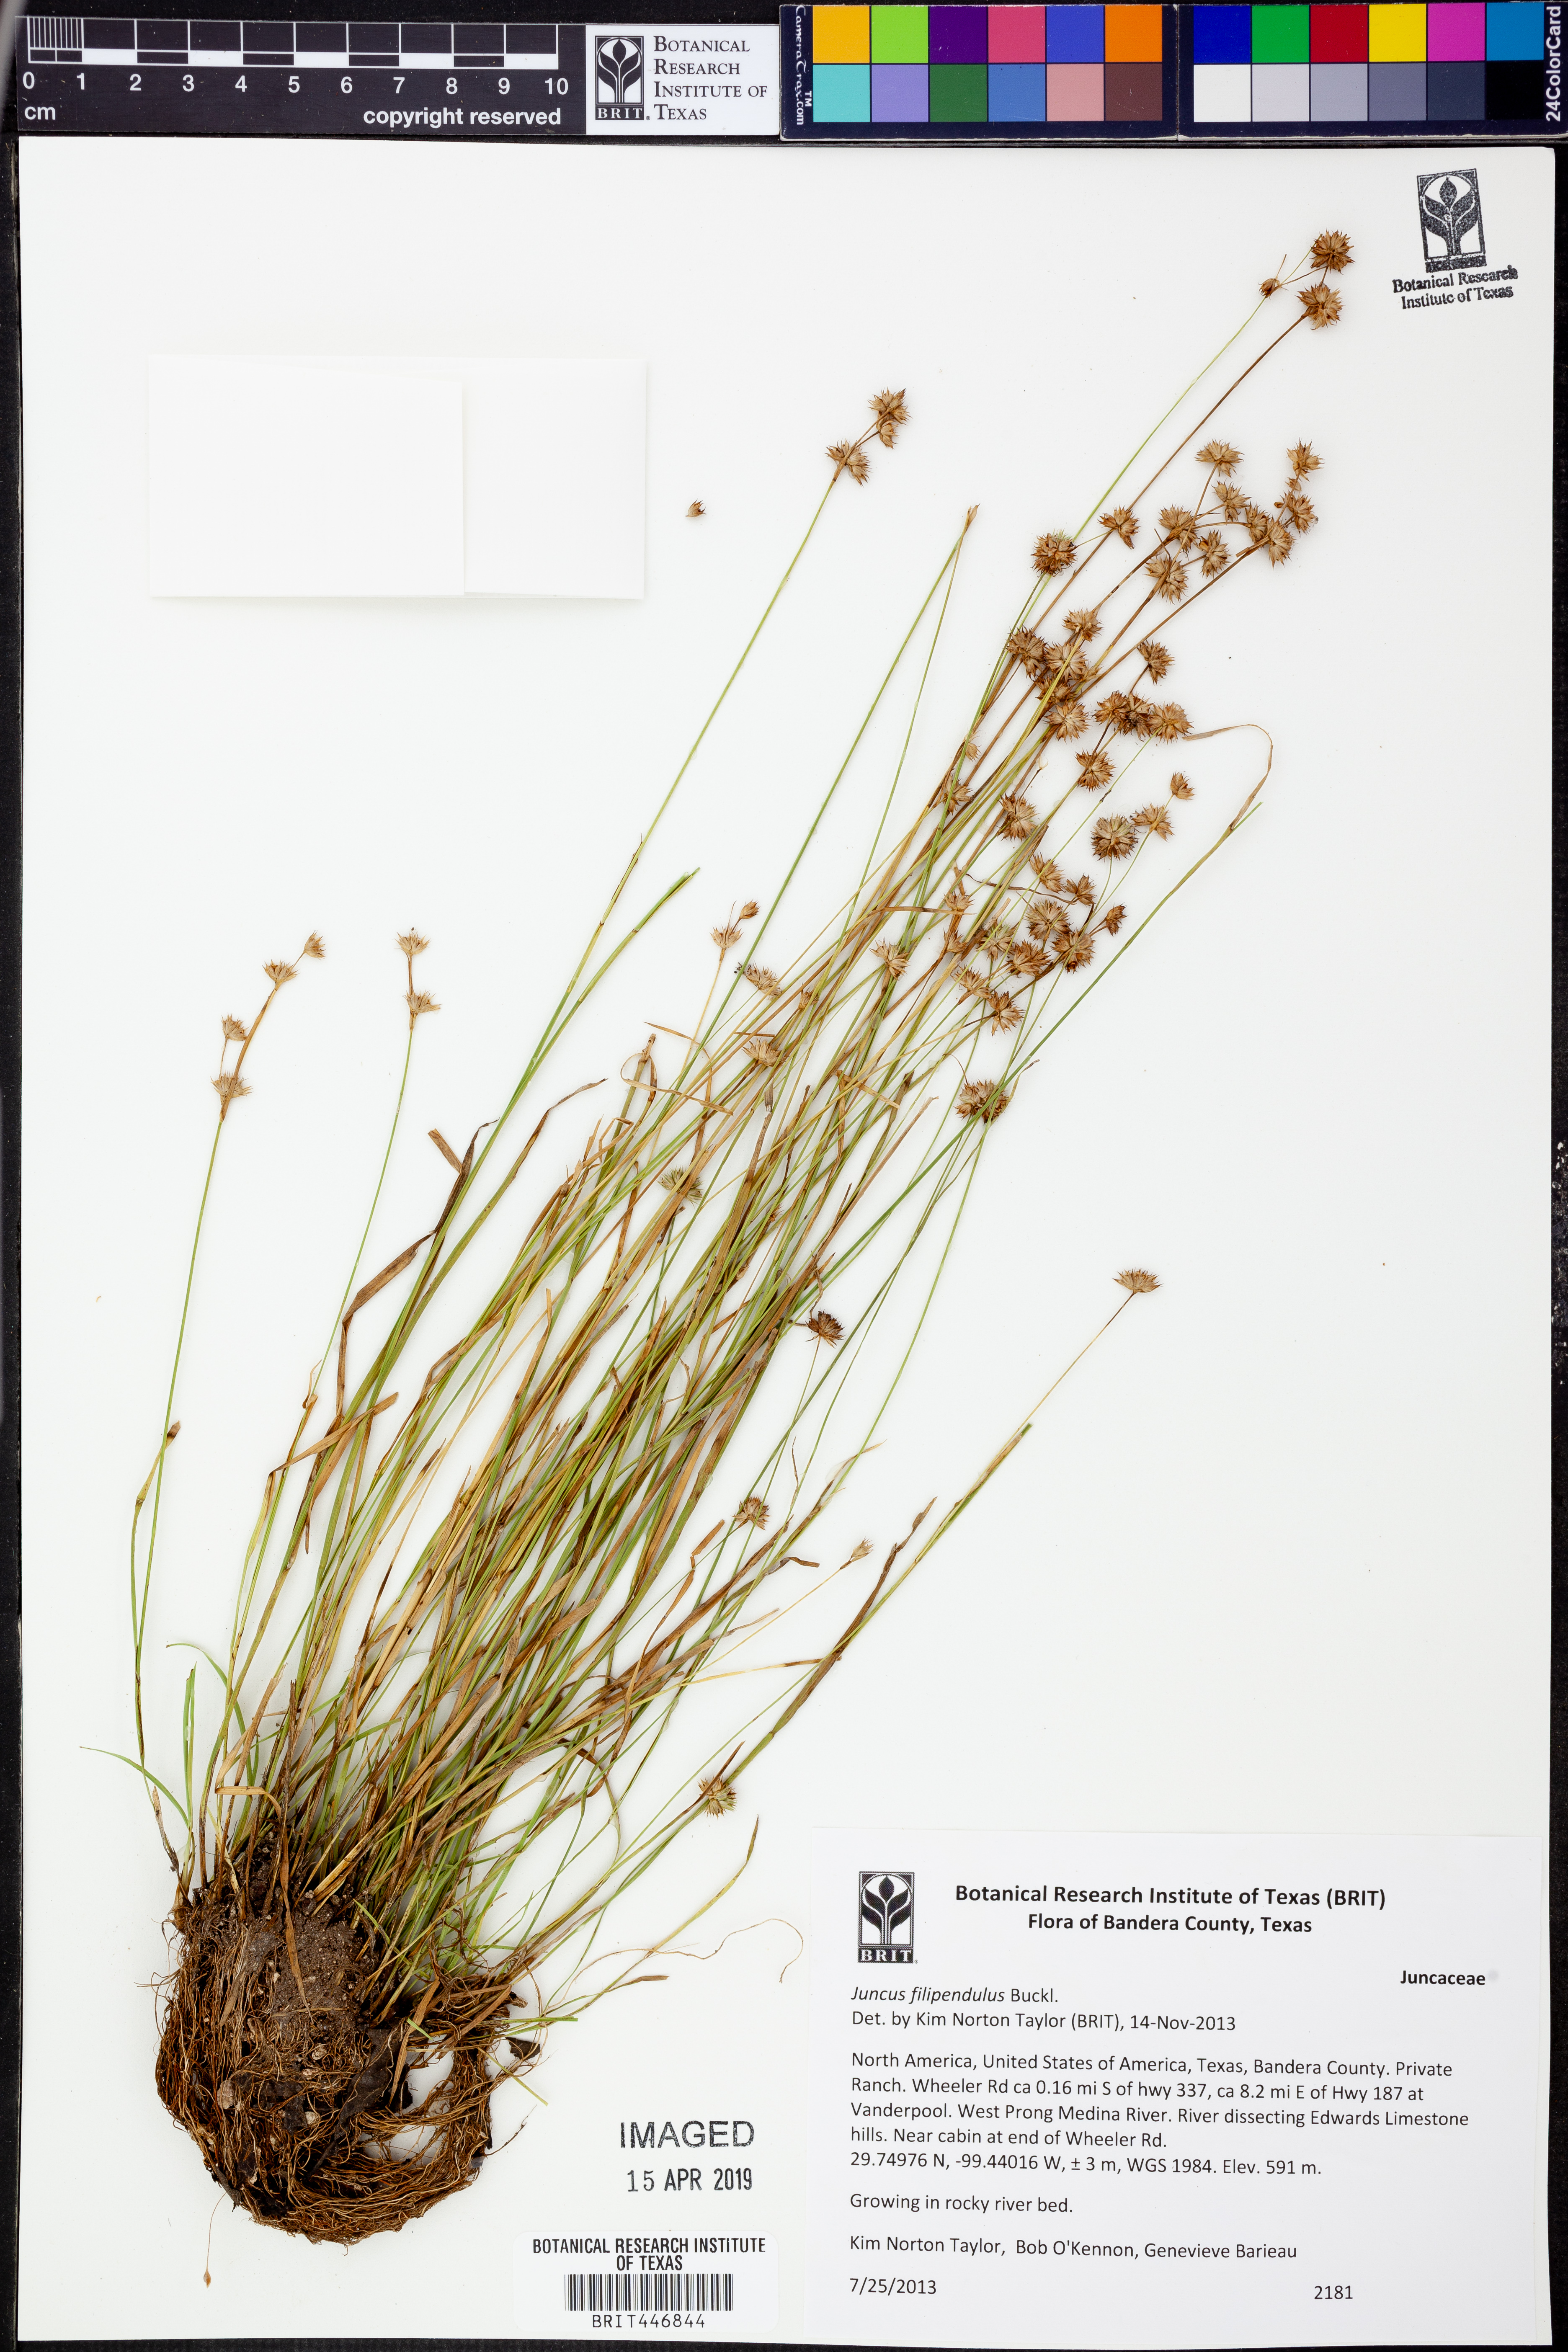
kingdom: Plantae
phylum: Tracheophyta
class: Liliopsida
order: Poales
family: Juncaceae
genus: Juncus
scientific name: Juncus filipendulus
